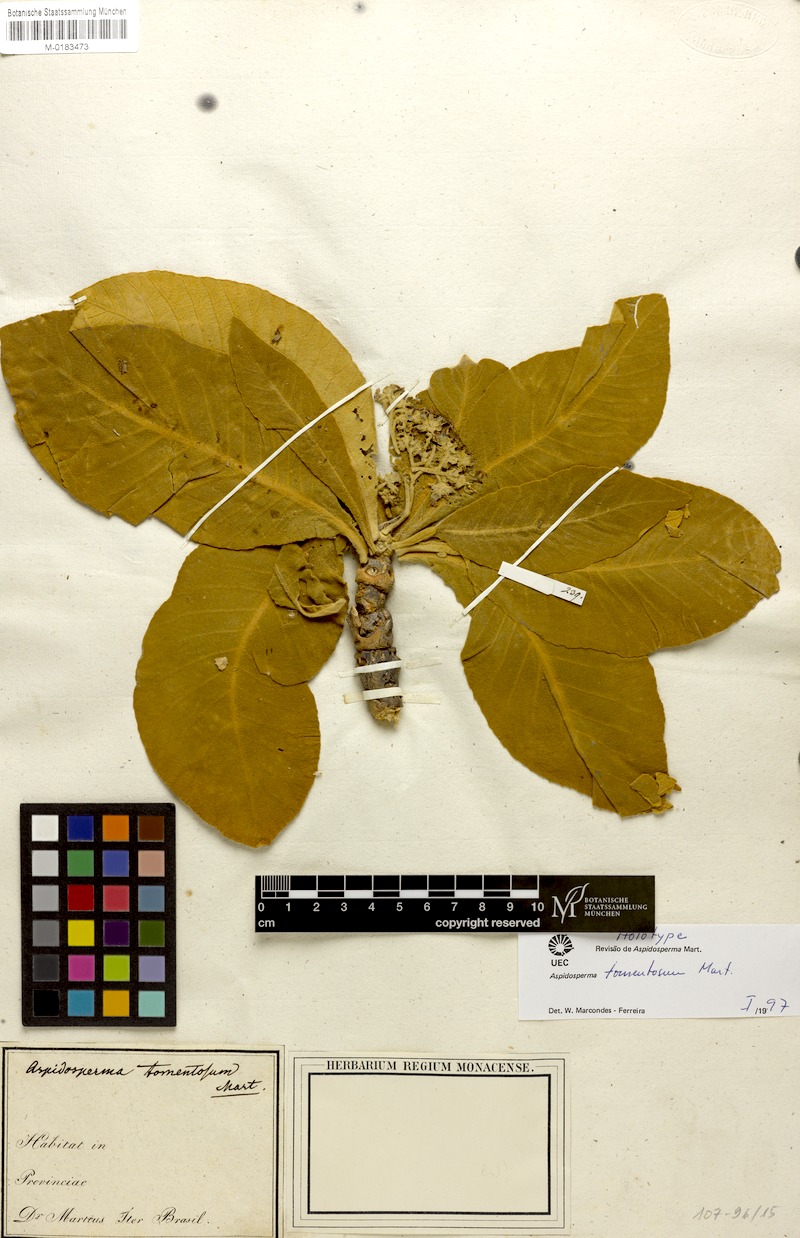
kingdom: Plantae
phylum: Tracheophyta
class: Magnoliopsida
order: Gentianales
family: Apocynaceae
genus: Aspidosperma
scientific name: Aspidosperma tomentosum
